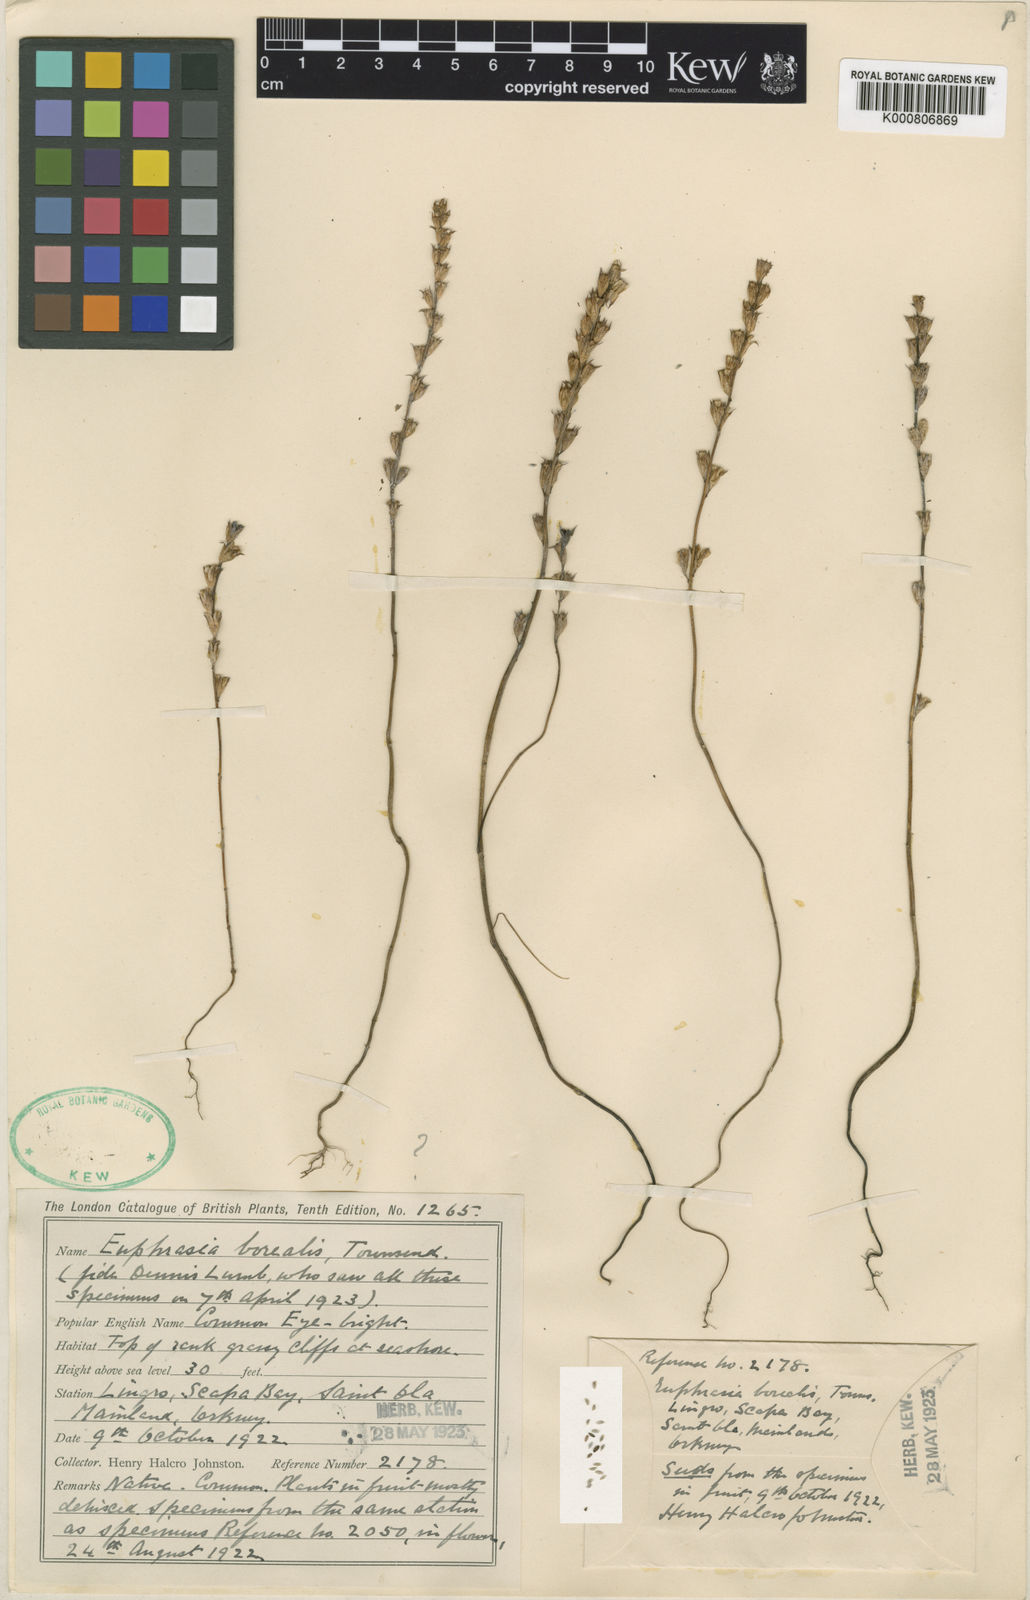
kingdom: Plantae
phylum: Tracheophyta
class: Magnoliopsida
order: Lamiales
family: Orobanchaceae
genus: Euphrasia
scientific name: Euphrasia arctica
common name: An eyebright
